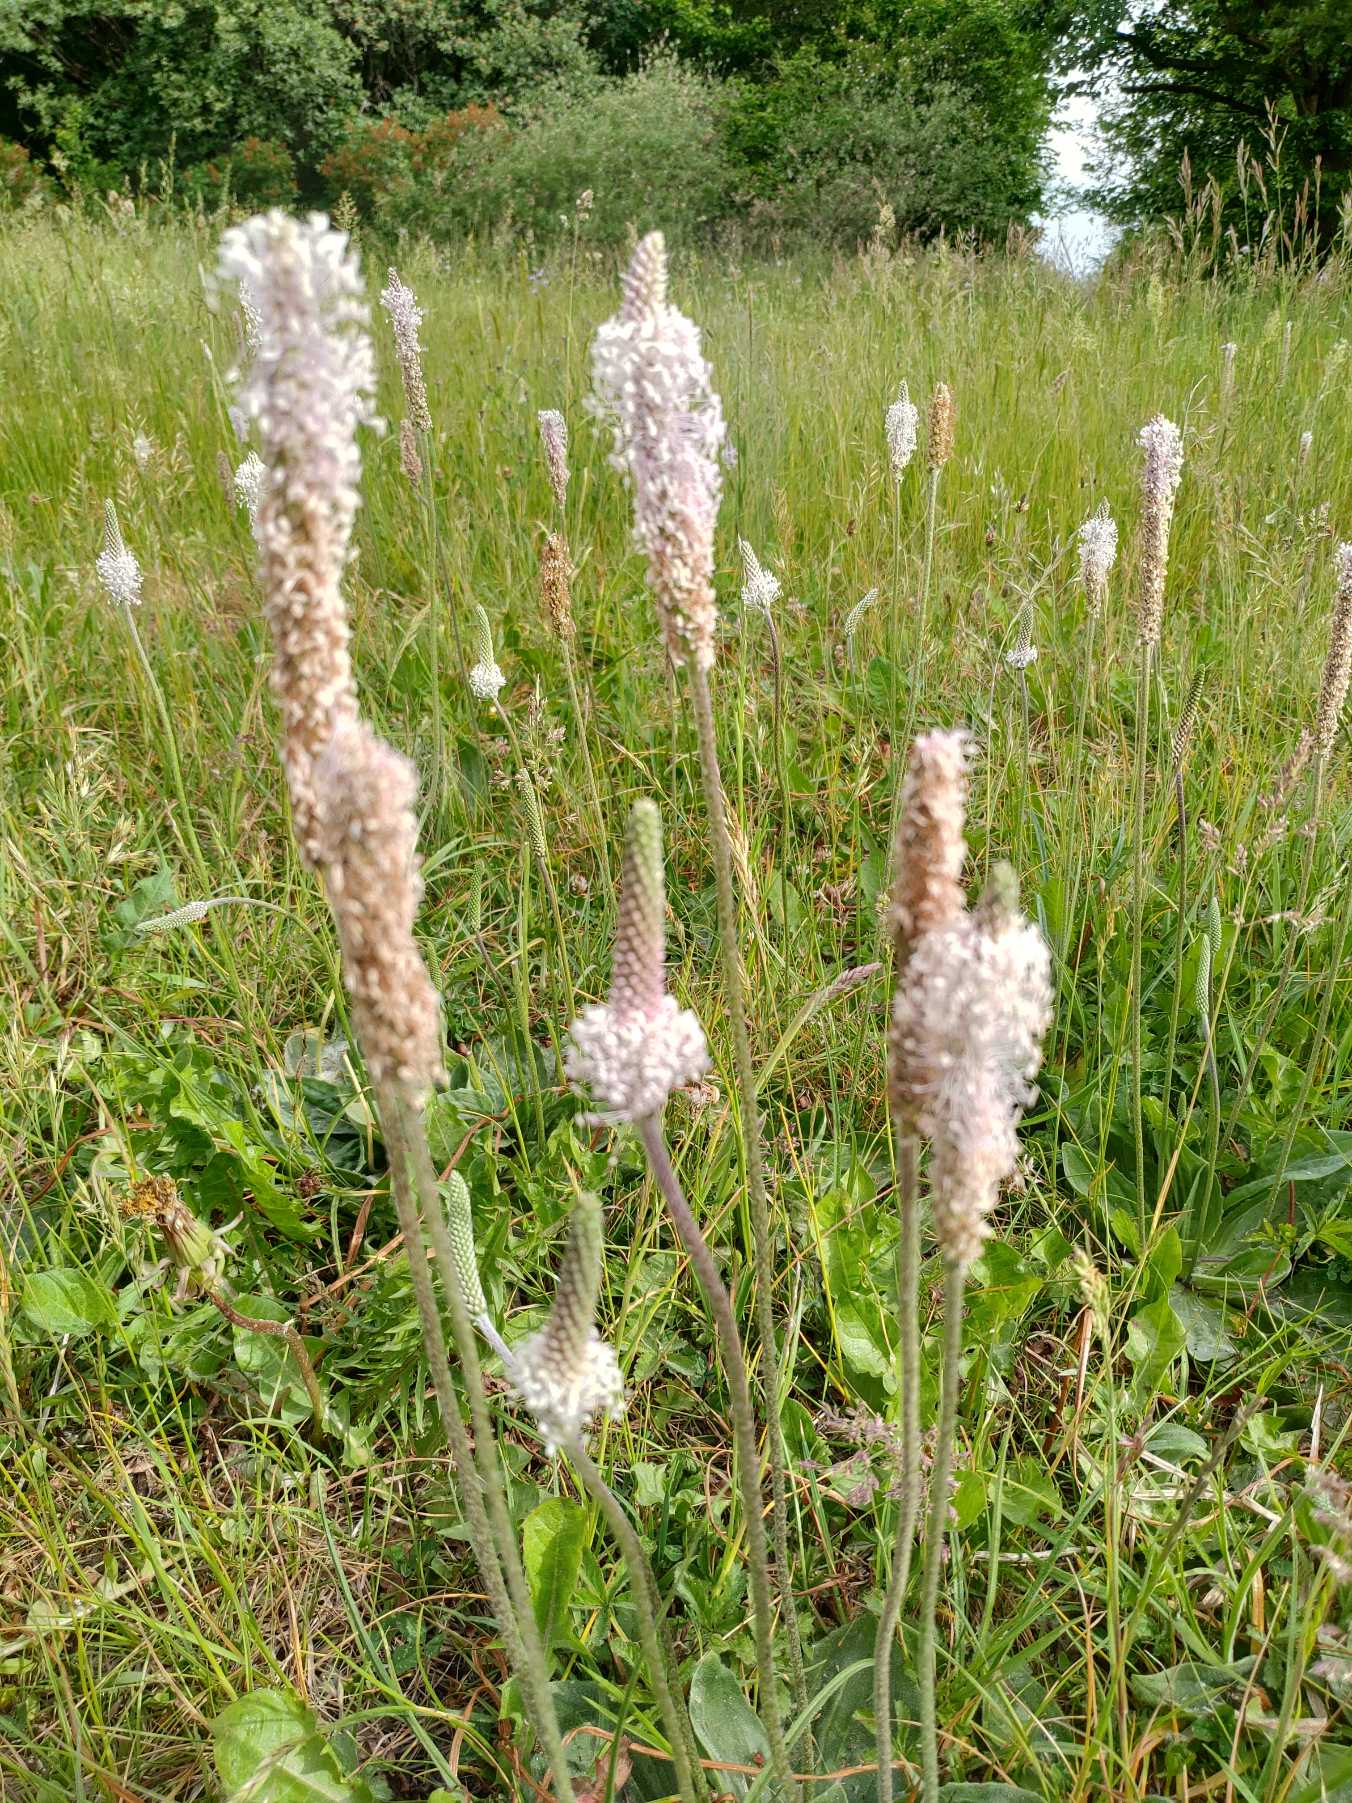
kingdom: Plantae
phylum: Tracheophyta
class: Magnoliopsida
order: Lamiales
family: Plantaginaceae
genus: Plantago
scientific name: Plantago media
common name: Dunet vejbred
